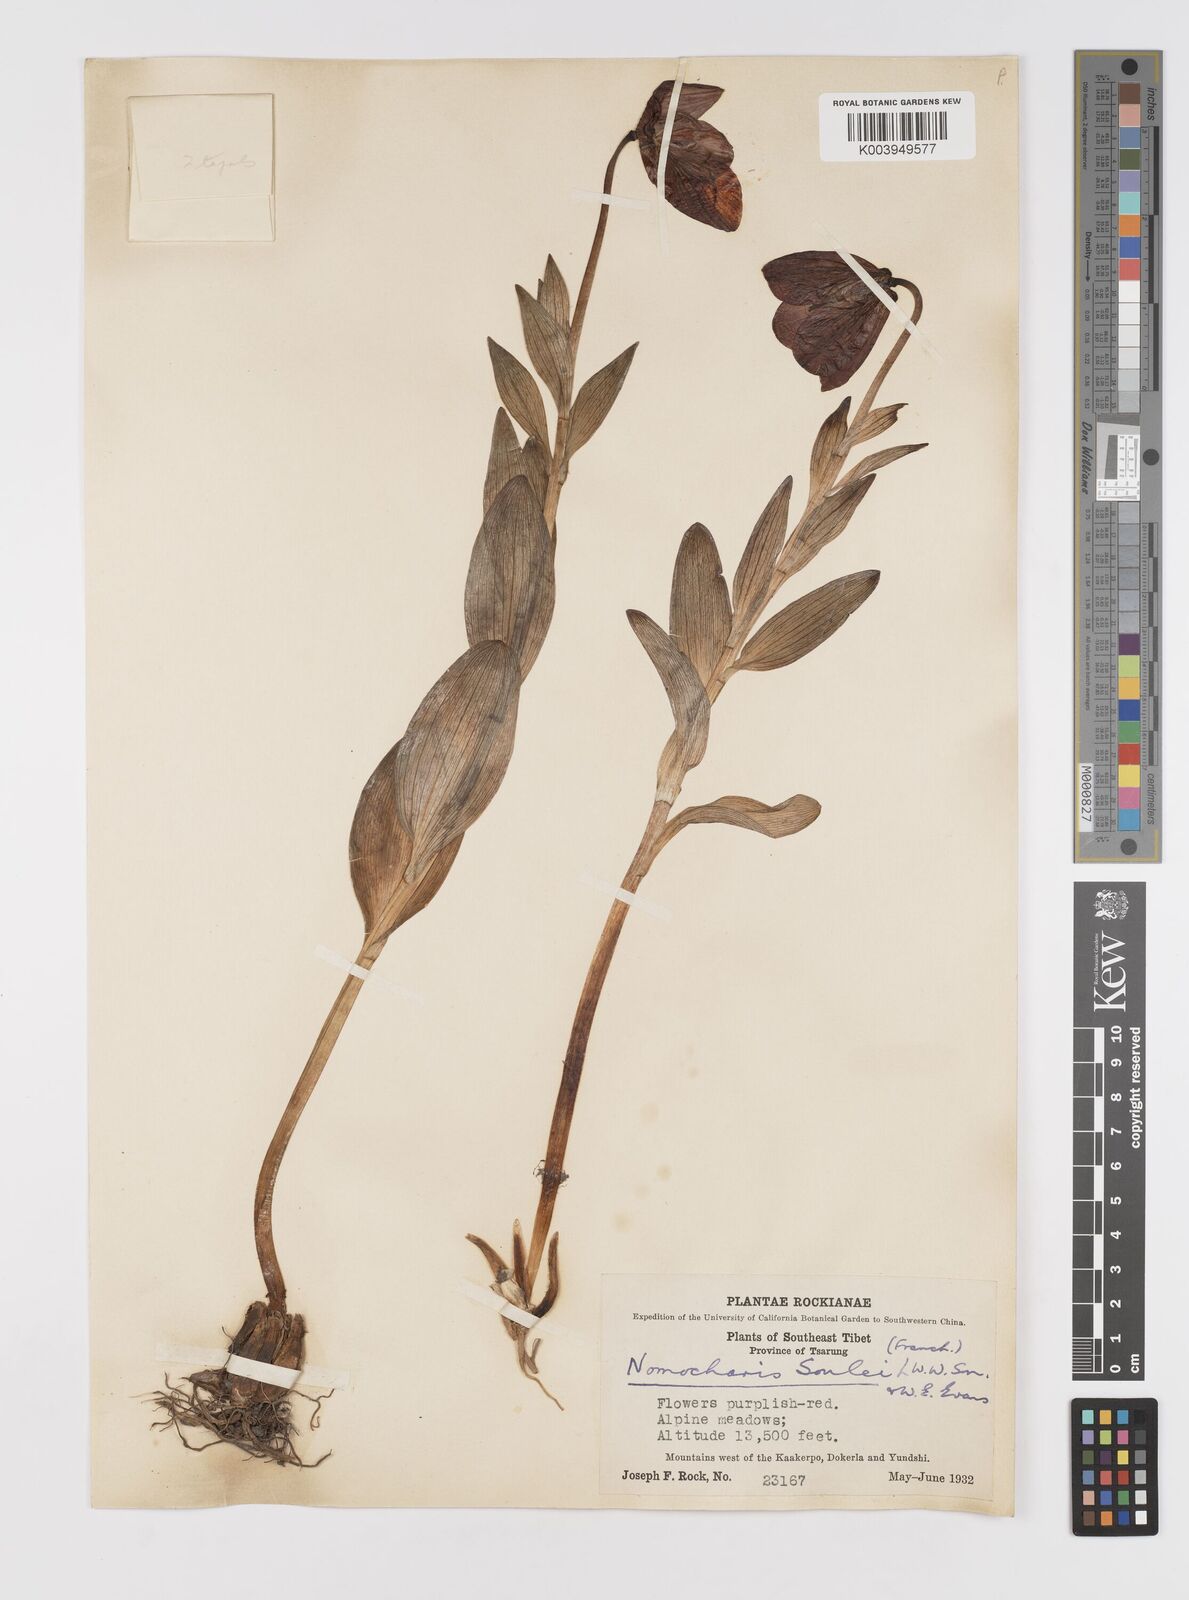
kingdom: Plantae
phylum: Tracheophyta
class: Liliopsida
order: Liliales
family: Liliaceae
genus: Lilium
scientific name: Lilium souliei
